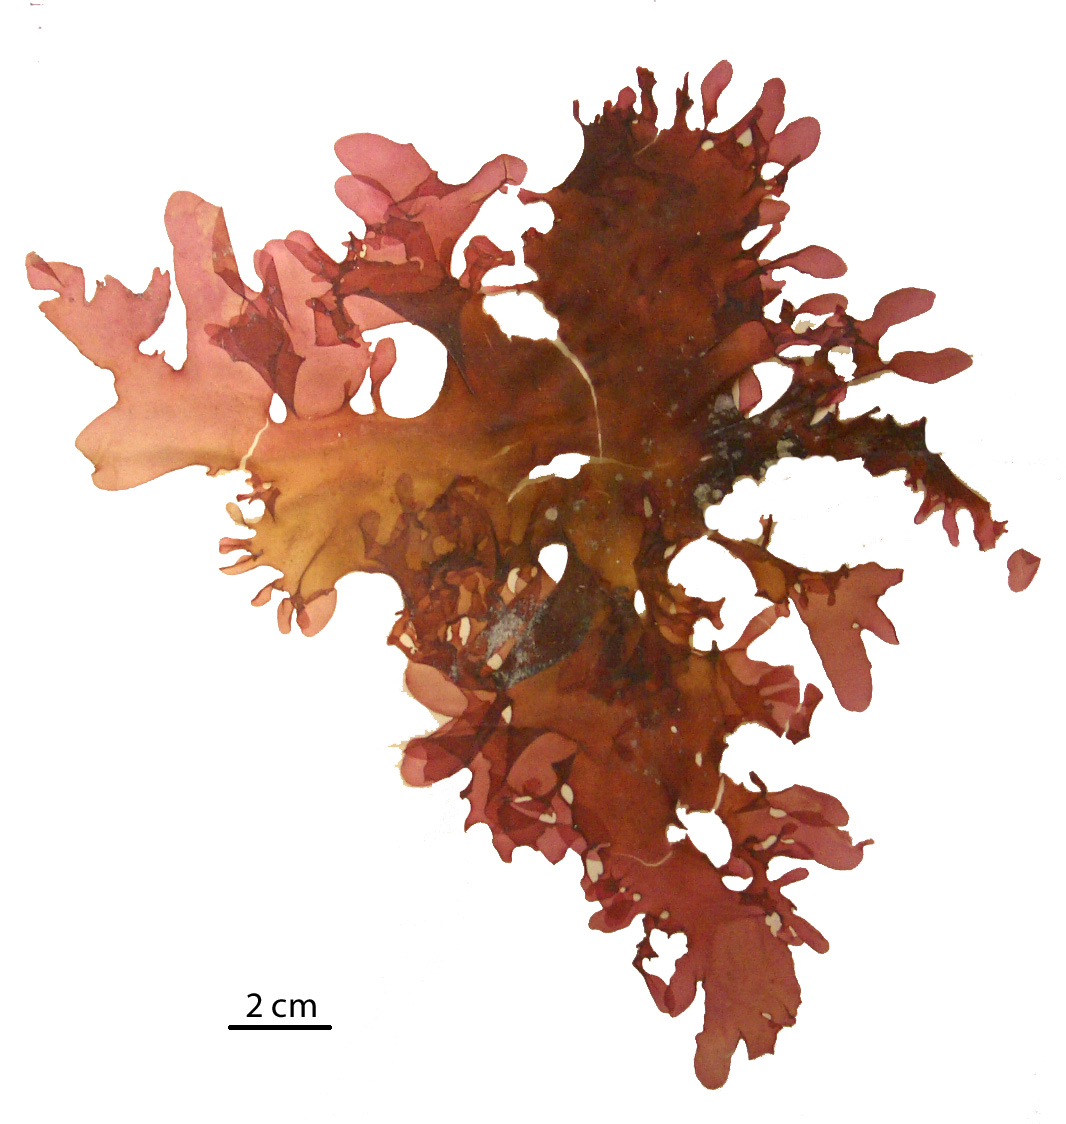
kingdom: Plantae
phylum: Rhodophyta
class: Florideophyceae
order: Gigartinales
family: Kallymeniaceae
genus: Psaromenia
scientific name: Psaromenia berggrenii
